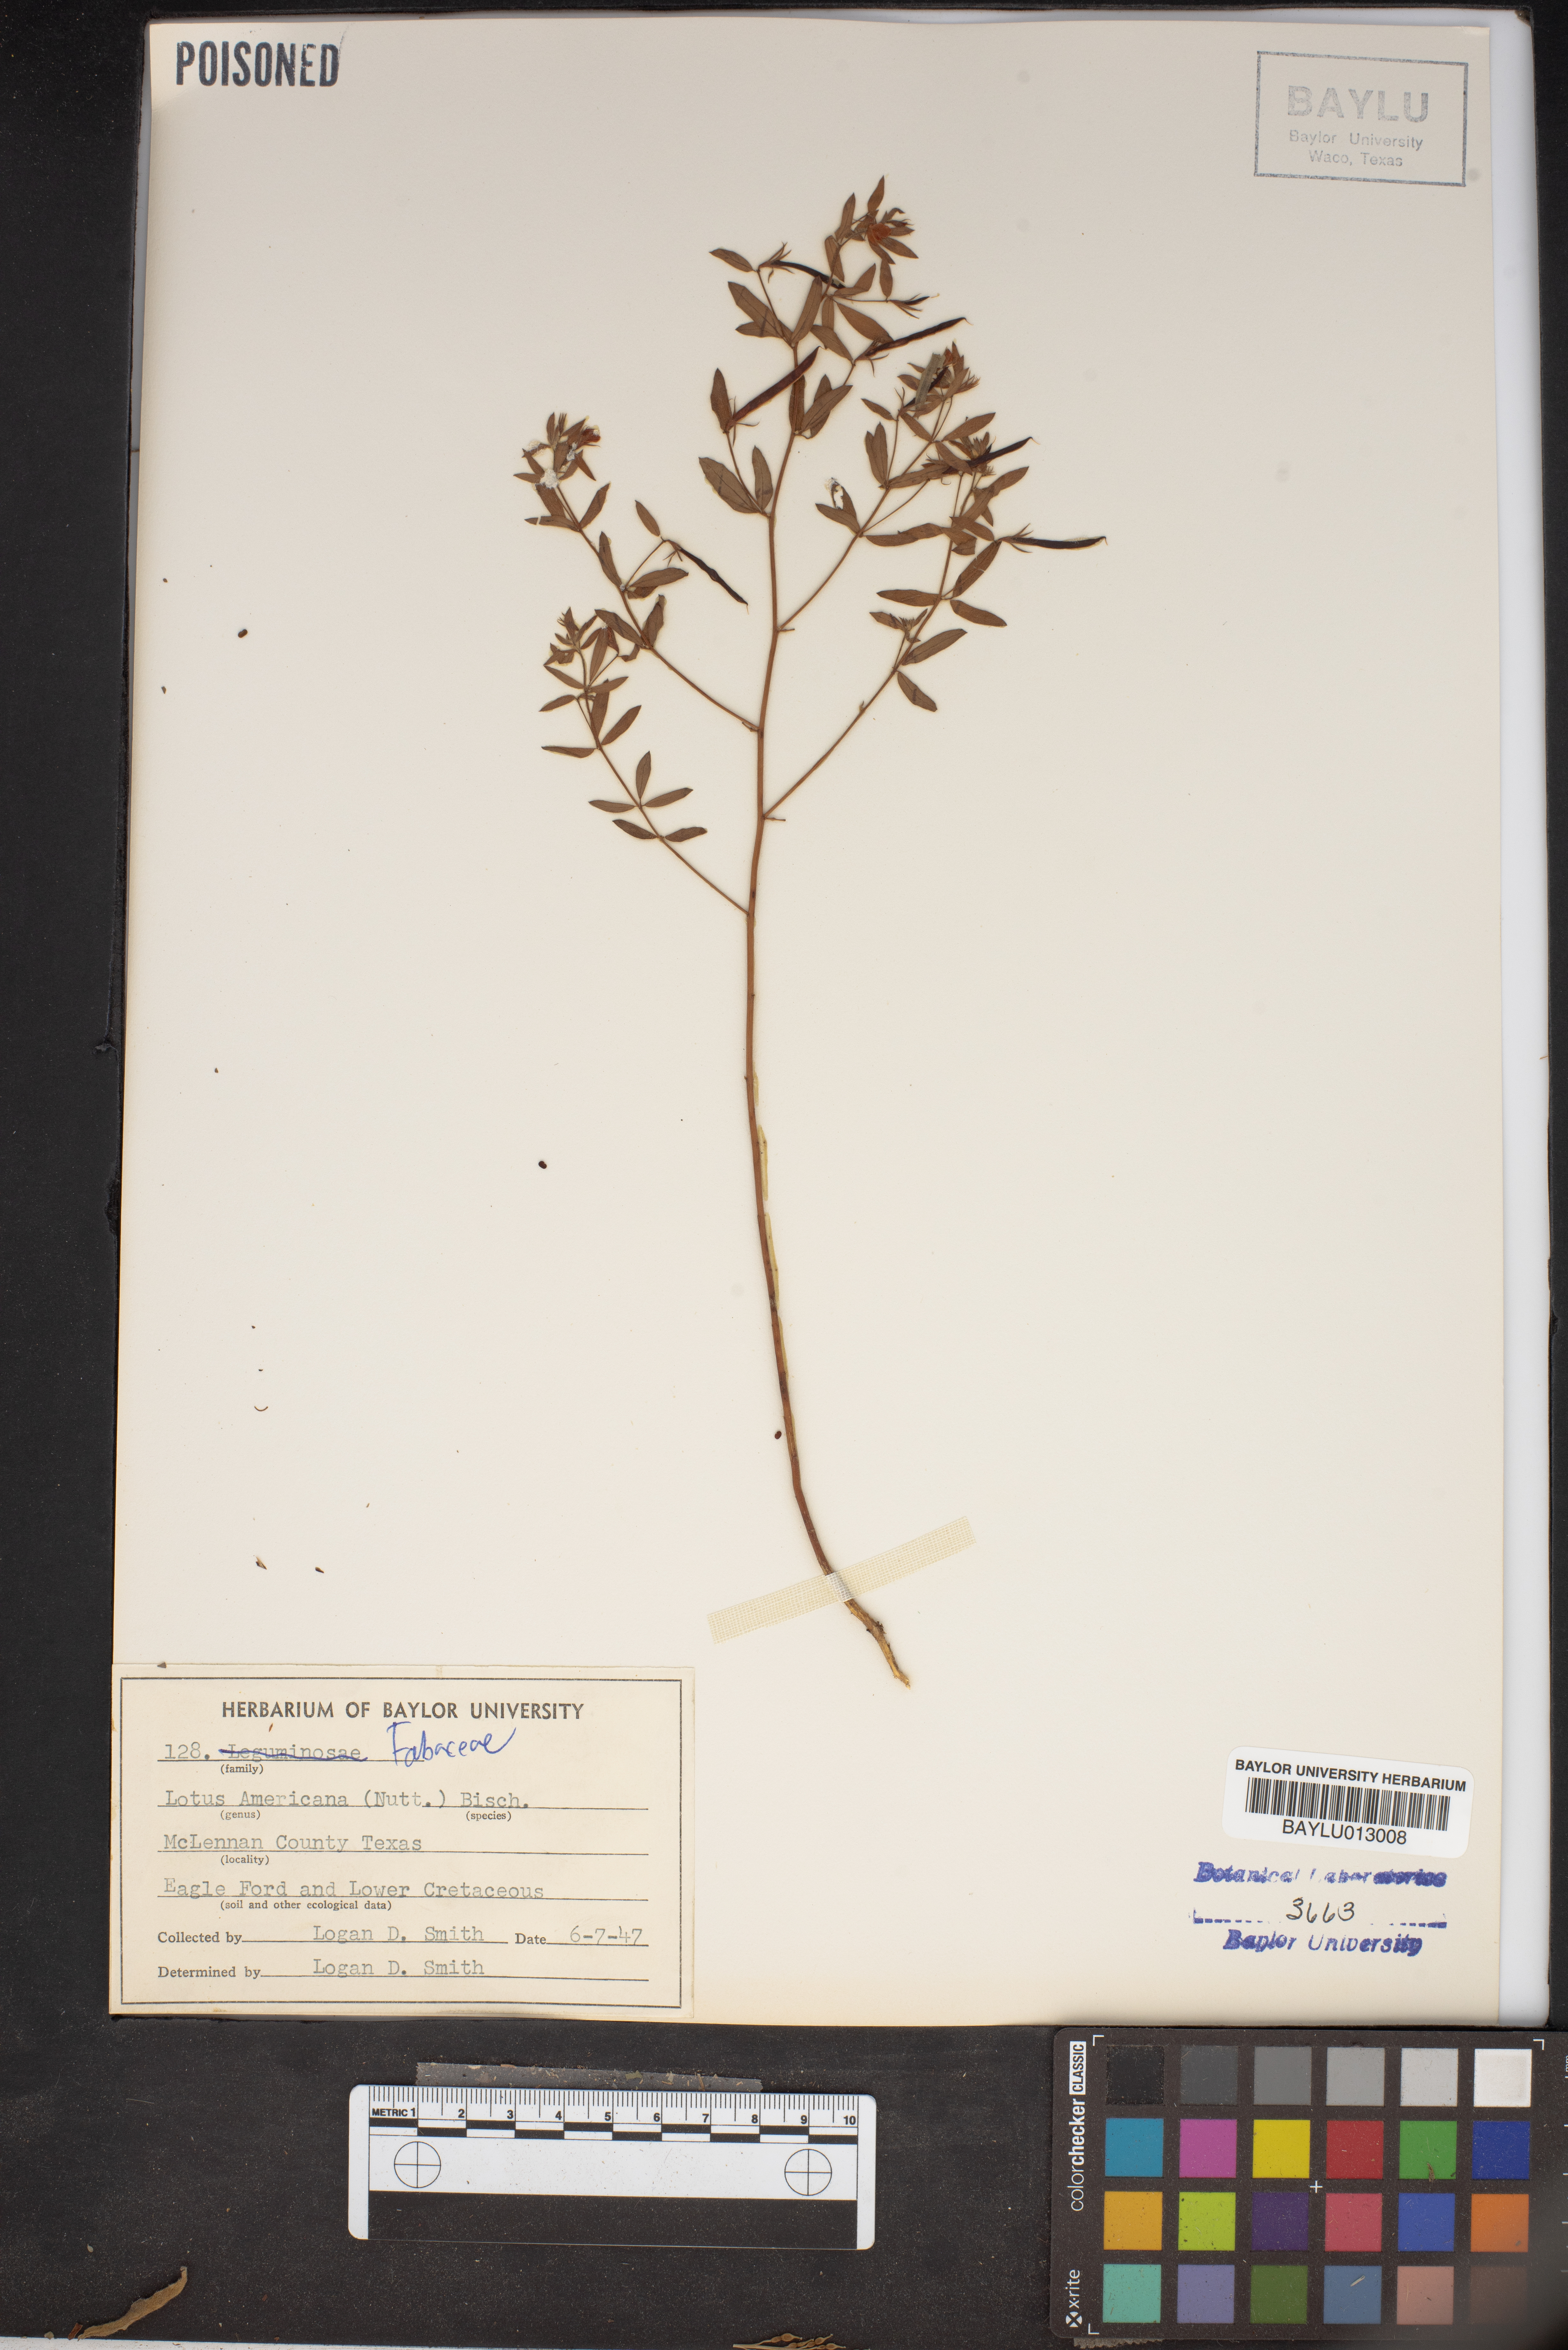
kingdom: Plantae
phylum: Tracheophyta
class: Magnoliopsida
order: Fabales
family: Fabaceae
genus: Acmispon
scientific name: Acmispon americanus
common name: American bird's-foot trefoil
